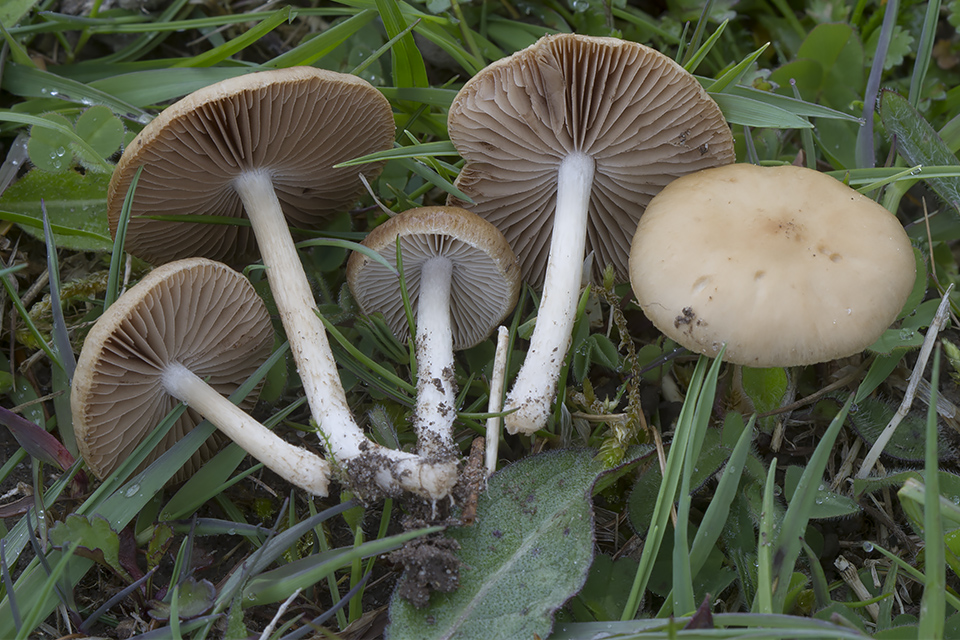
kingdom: Fungi
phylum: Basidiomycota
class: Agaricomycetes
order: Agaricales
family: Strophariaceae
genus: Agrocybe
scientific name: Agrocybe pediades
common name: almindelig agerhat
